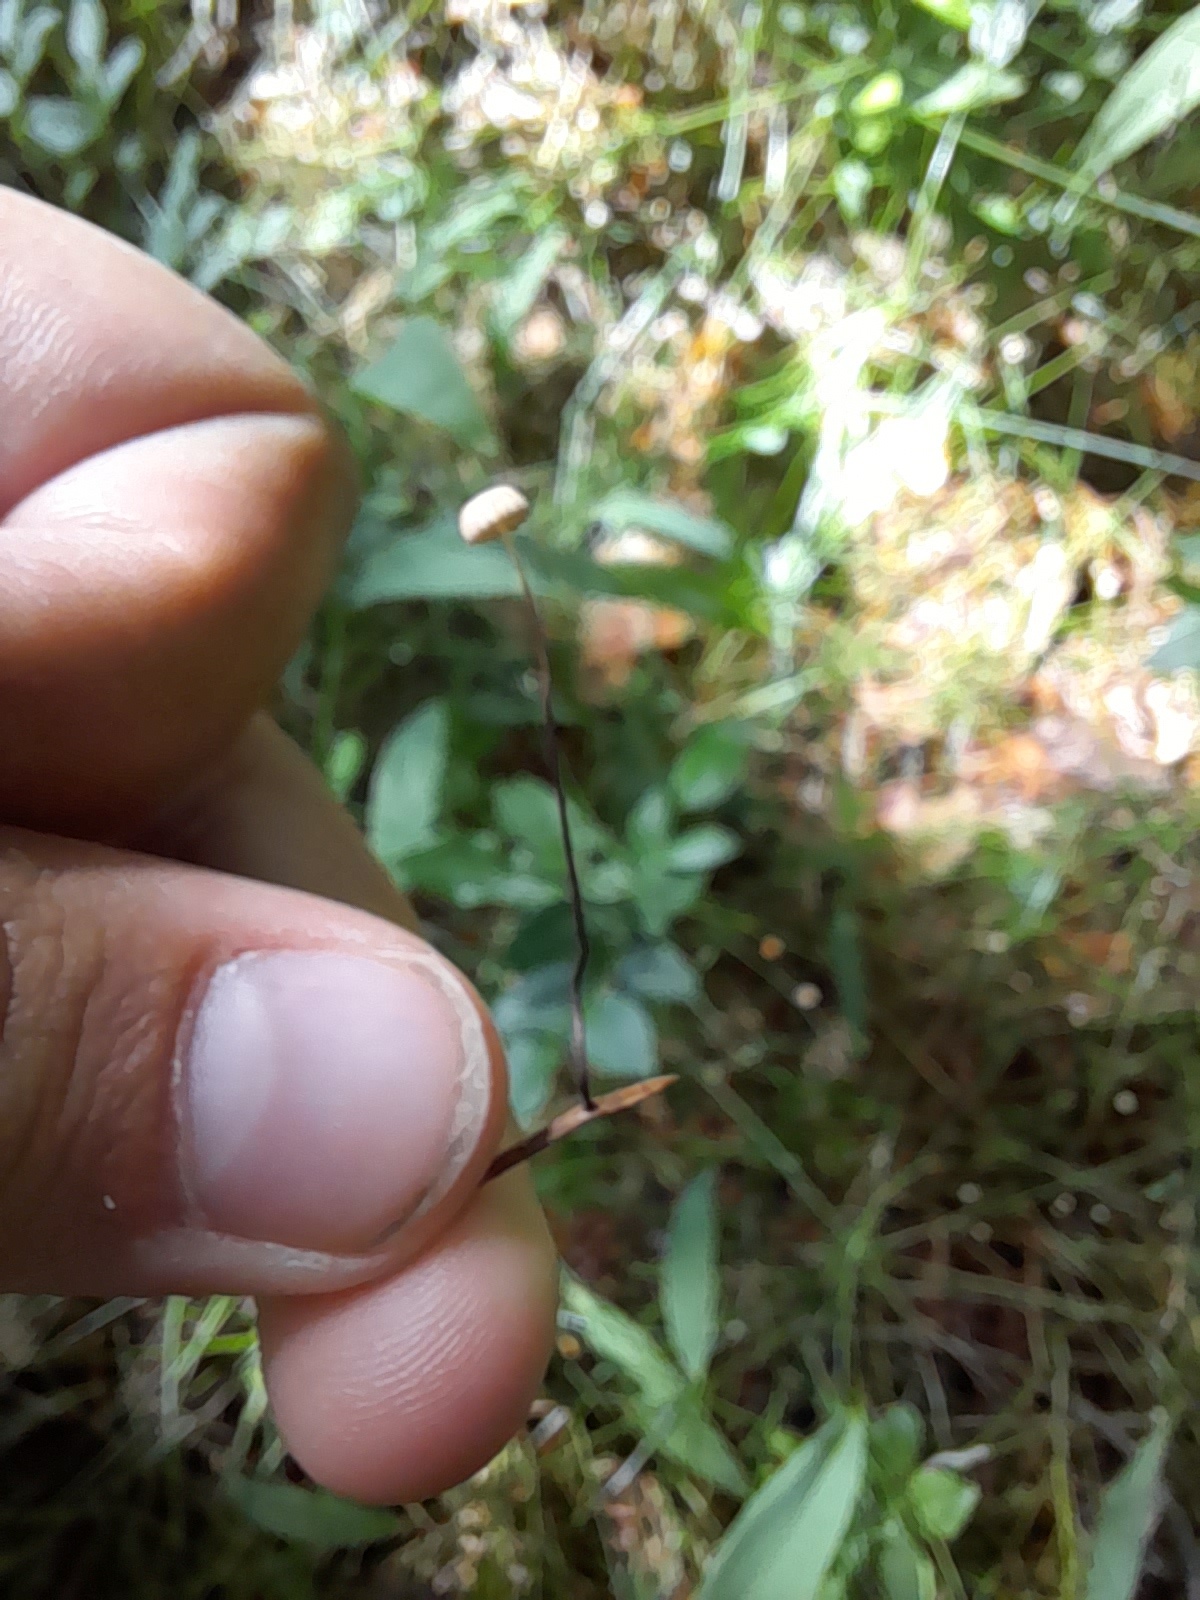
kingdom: Fungi
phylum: Basidiomycota
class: Agaricomycetes
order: Agaricales
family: Omphalotaceae
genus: Gymnopus
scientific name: Gymnopus androsaceus
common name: trådstokket fladhat
